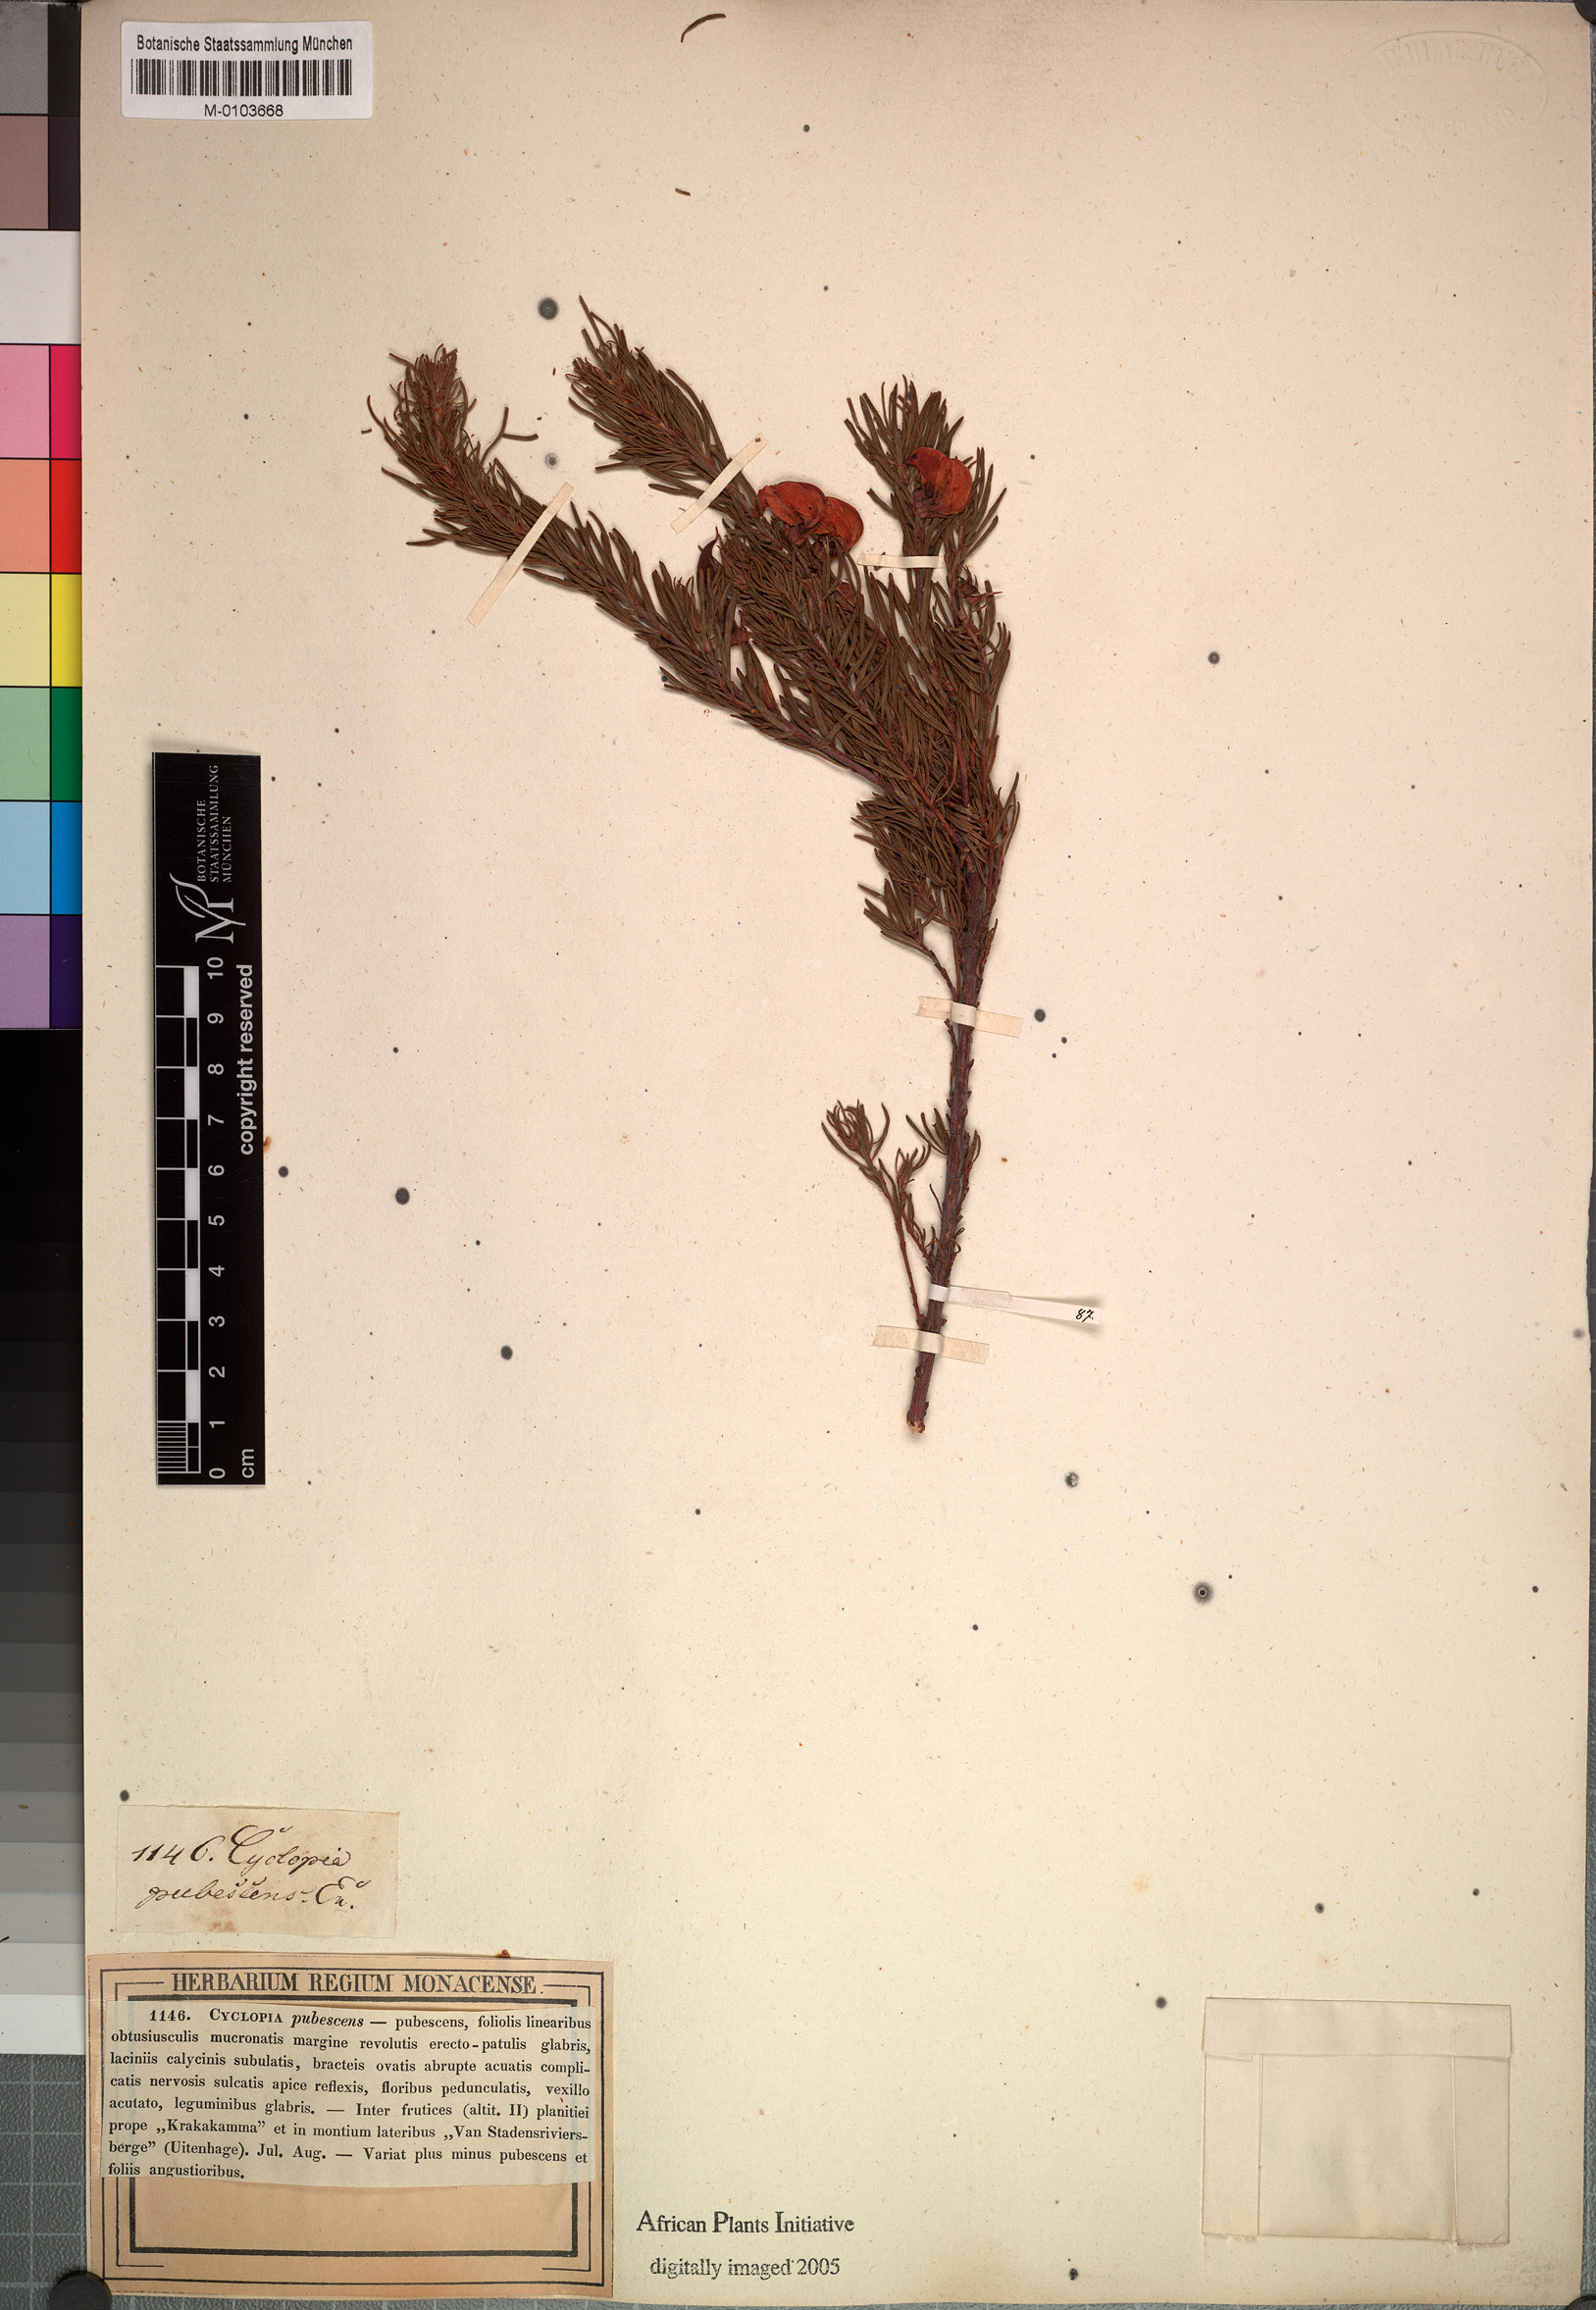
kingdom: Plantae
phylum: Tracheophyta
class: Magnoliopsida
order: Fabales
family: Fabaceae
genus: Cyclopia
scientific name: Cyclopia pubescens
